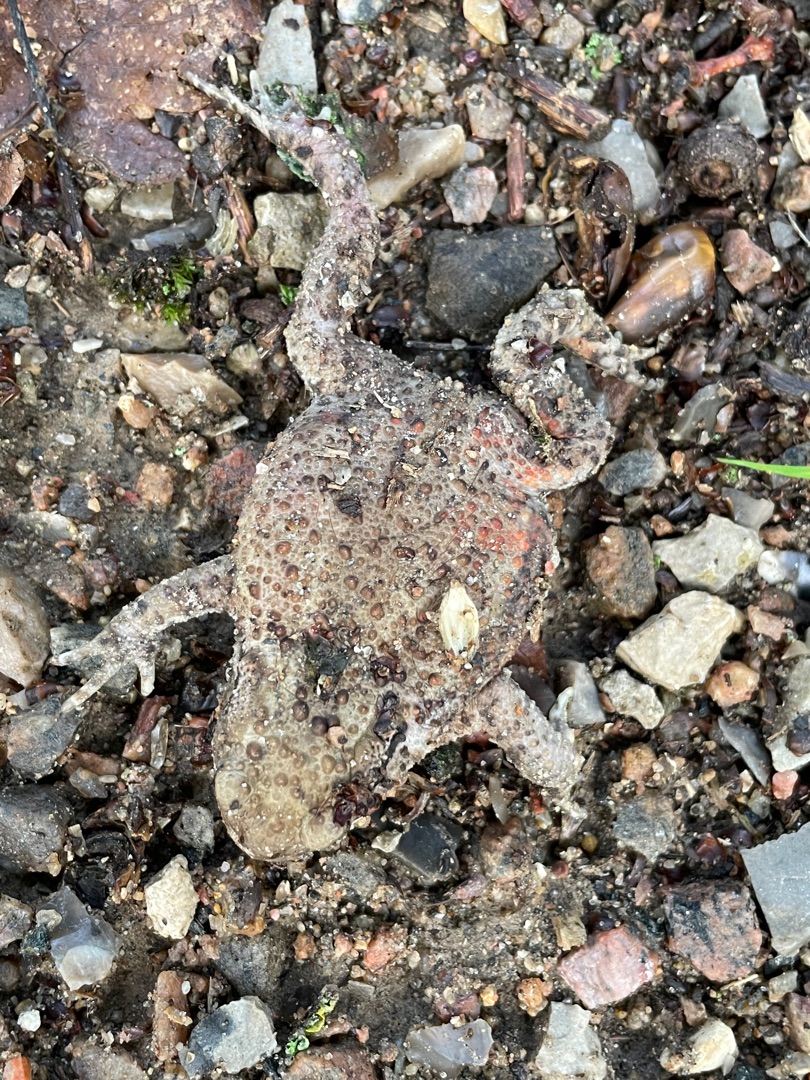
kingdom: Animalia
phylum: Chordata
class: Amphibia
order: Anura
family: Bufonidae
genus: Bufo
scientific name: Bufo bufo
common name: Skrubtudse
